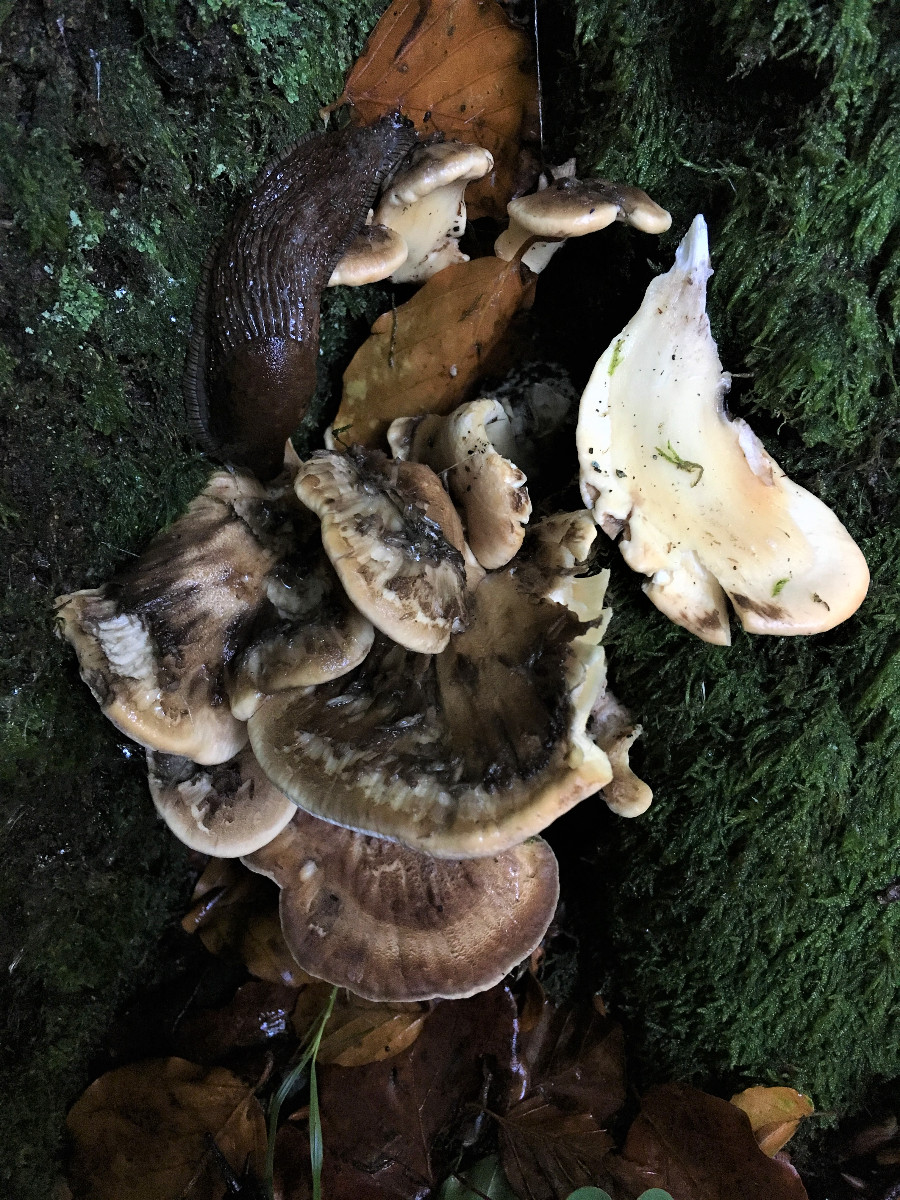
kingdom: Fungi
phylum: Basidiomycota
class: Agaricomycetes
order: Polyporales
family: Meripilaceae
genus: Meripilus
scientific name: Meripilus giganteus
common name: kæmpeporesvamp
